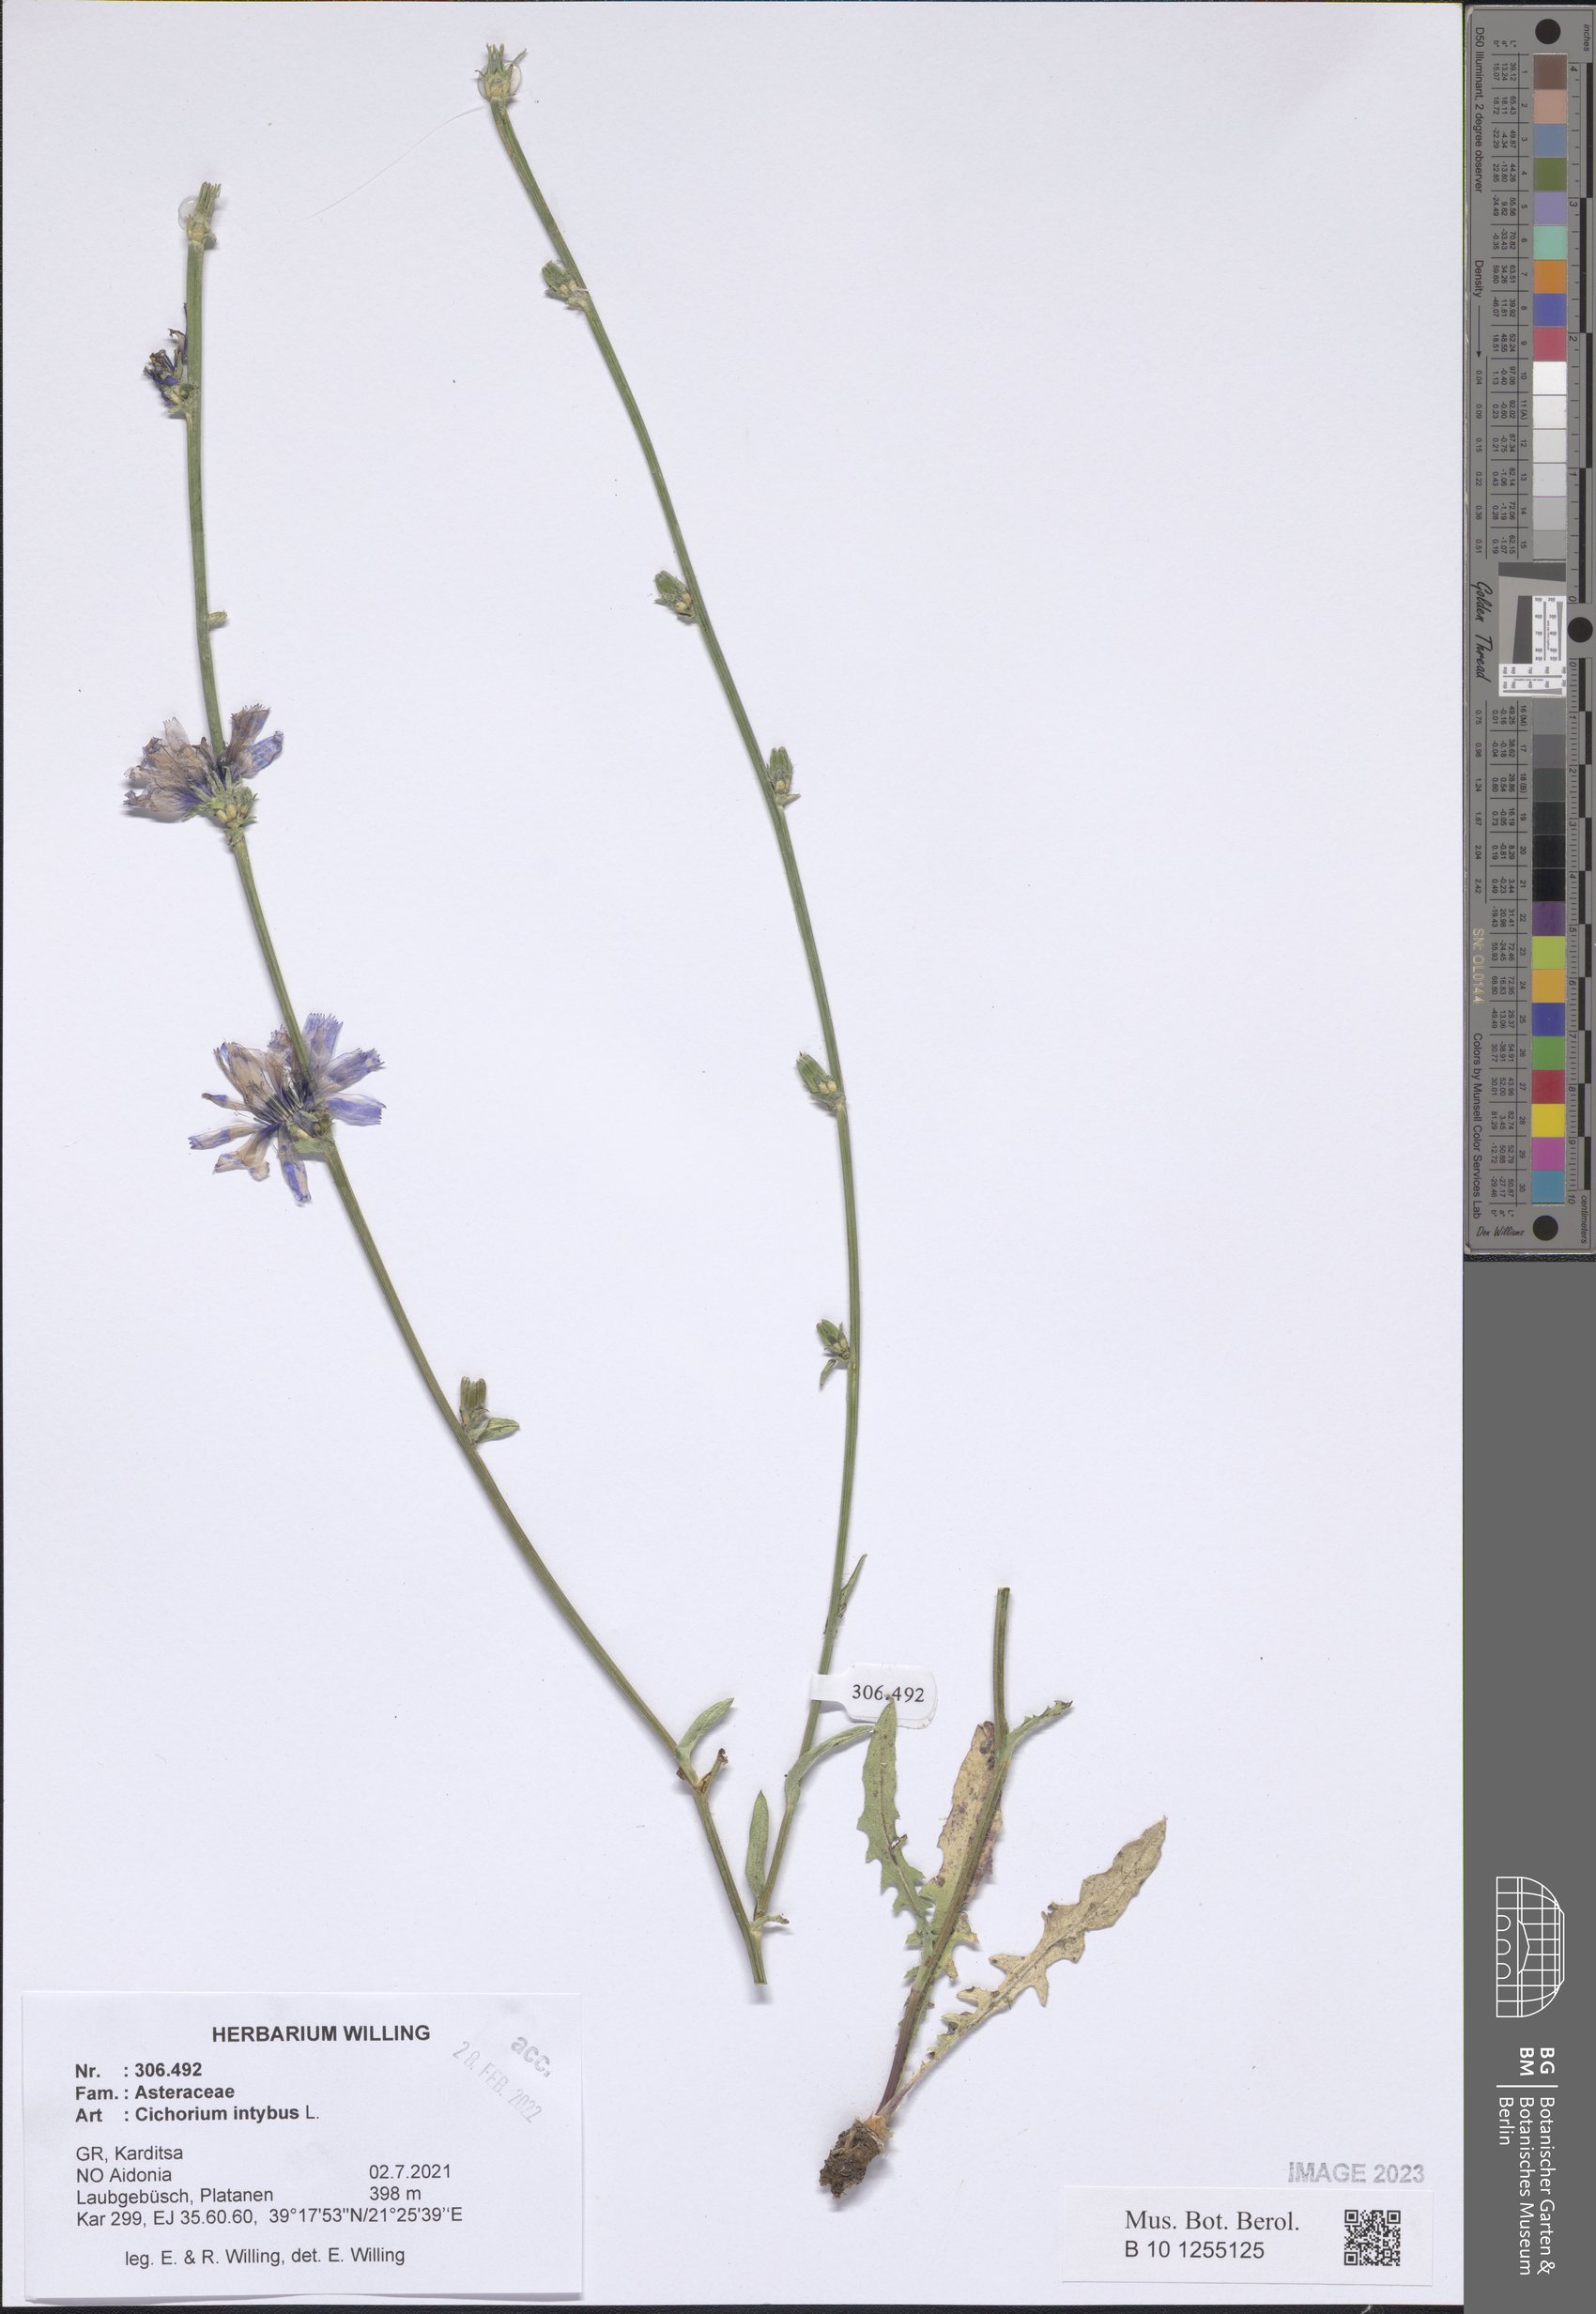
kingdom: Plantae
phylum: Tracheophyta
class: Magnoliopsida
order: Asterales
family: Asteraceae
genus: Cichorium
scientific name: Cichorium intybus
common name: Chicory
